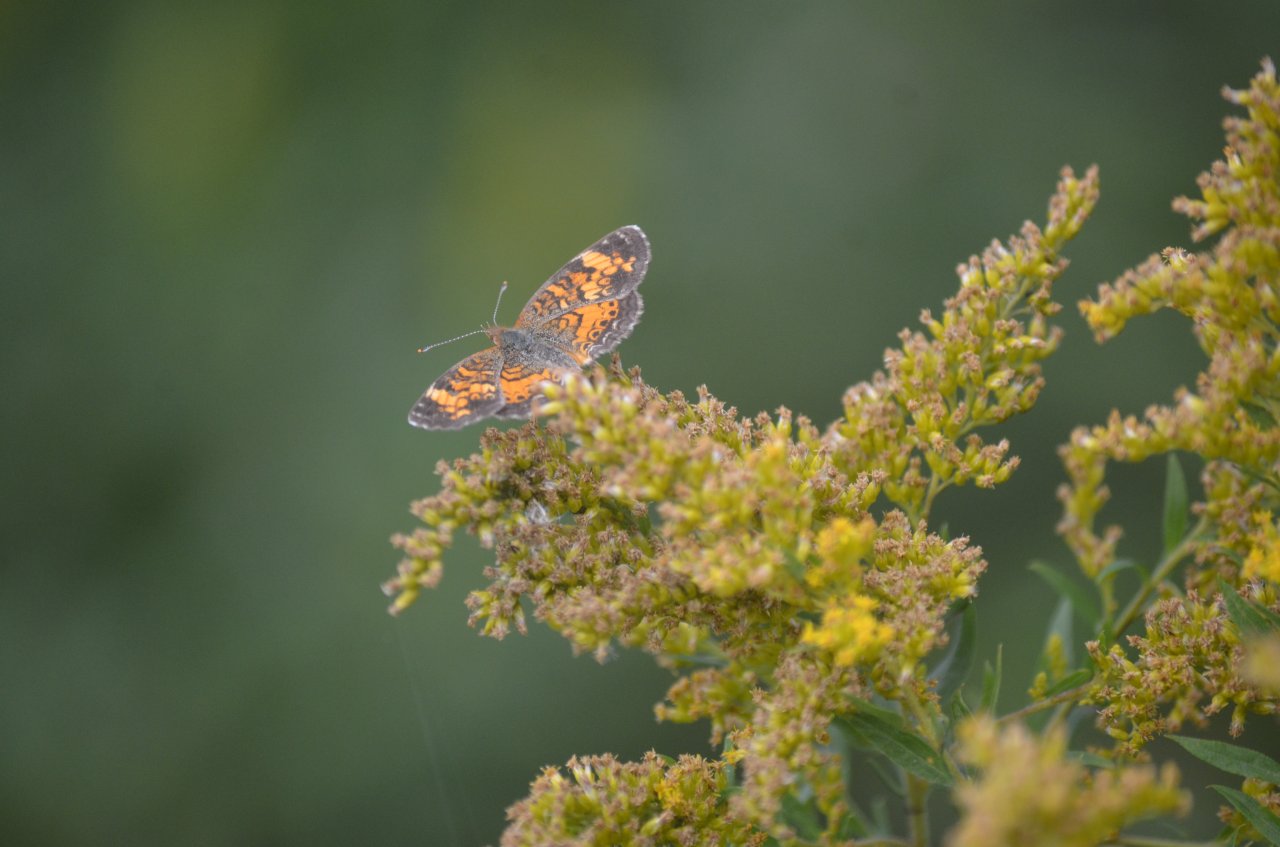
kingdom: Animalia
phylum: Arthropoda
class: Insecta
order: Lepidoptera
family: Nymphalidae
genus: Phyciodes
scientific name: Phyciodes tharos
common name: Northern Crescent
